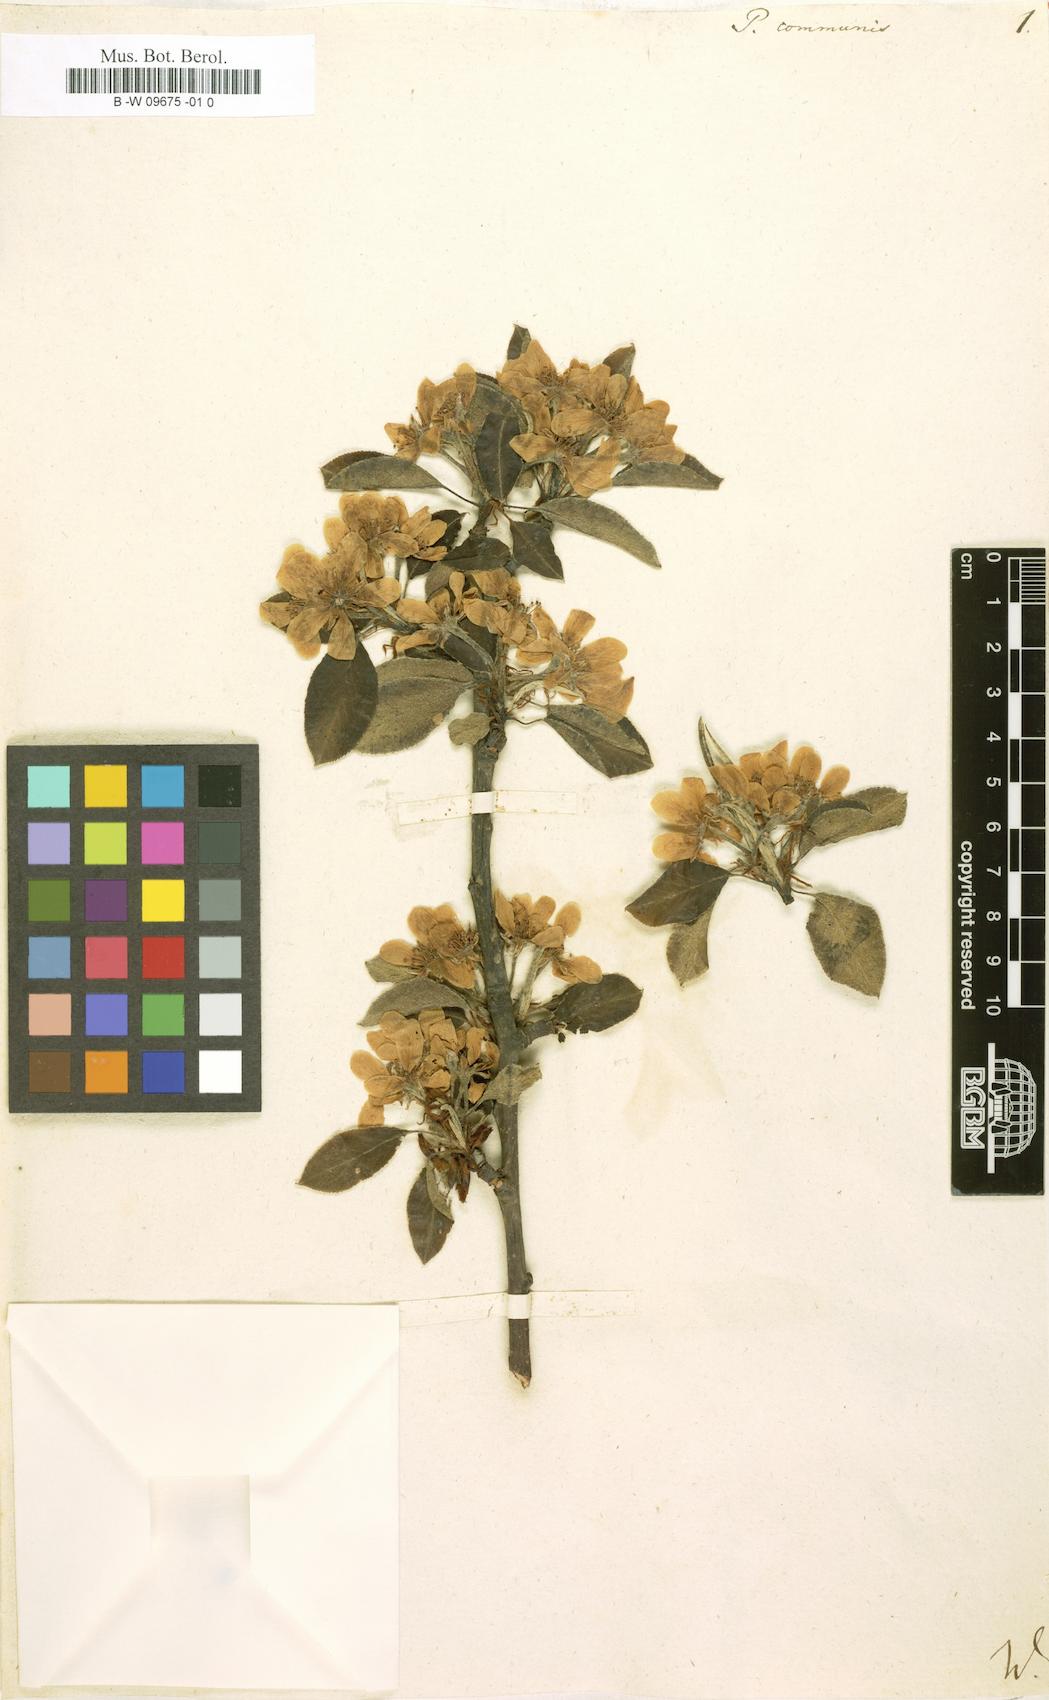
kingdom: Plantae
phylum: Tracheophyta
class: Magnoliopsida
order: Rosales
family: Rosaceae
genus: Pyrus
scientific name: Pyrus communis
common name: Pear
